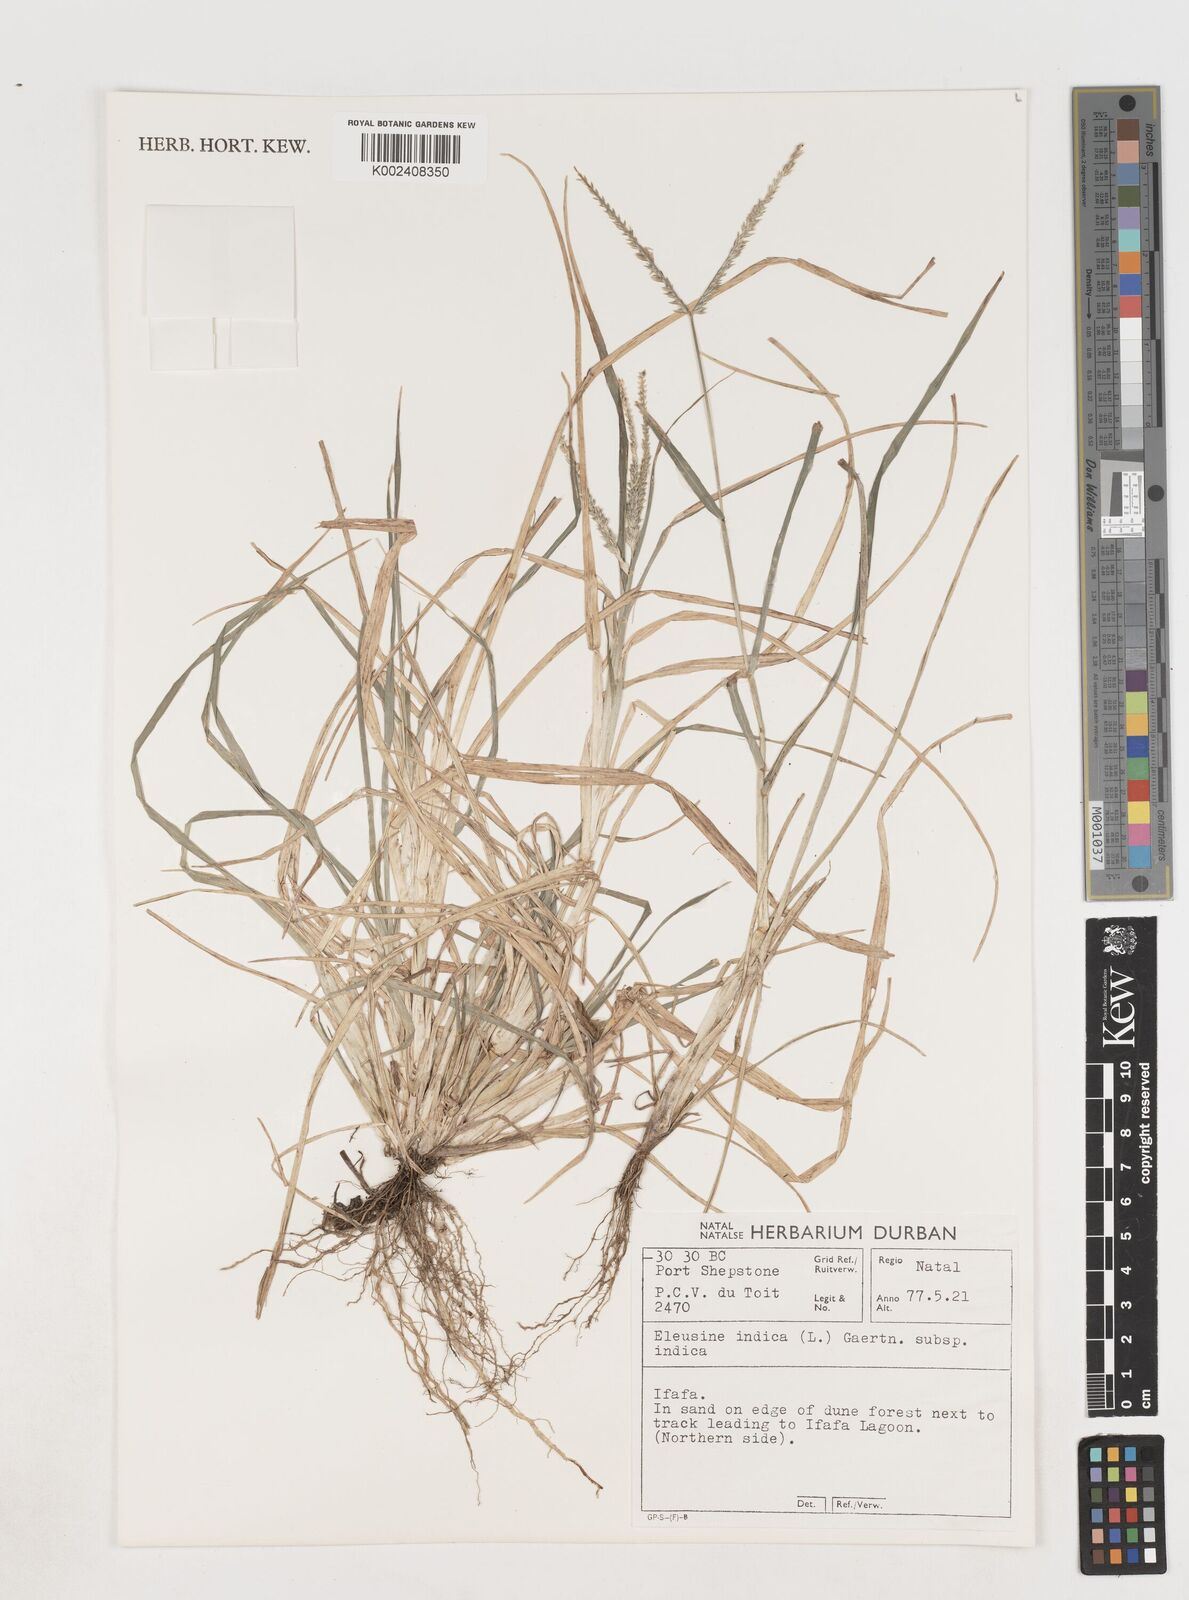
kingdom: Plantae
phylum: Tracheophyta
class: Liliopsida
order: Poales
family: Poaceae
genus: Eleusine
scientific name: Eleusine indica
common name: Yard-grass
